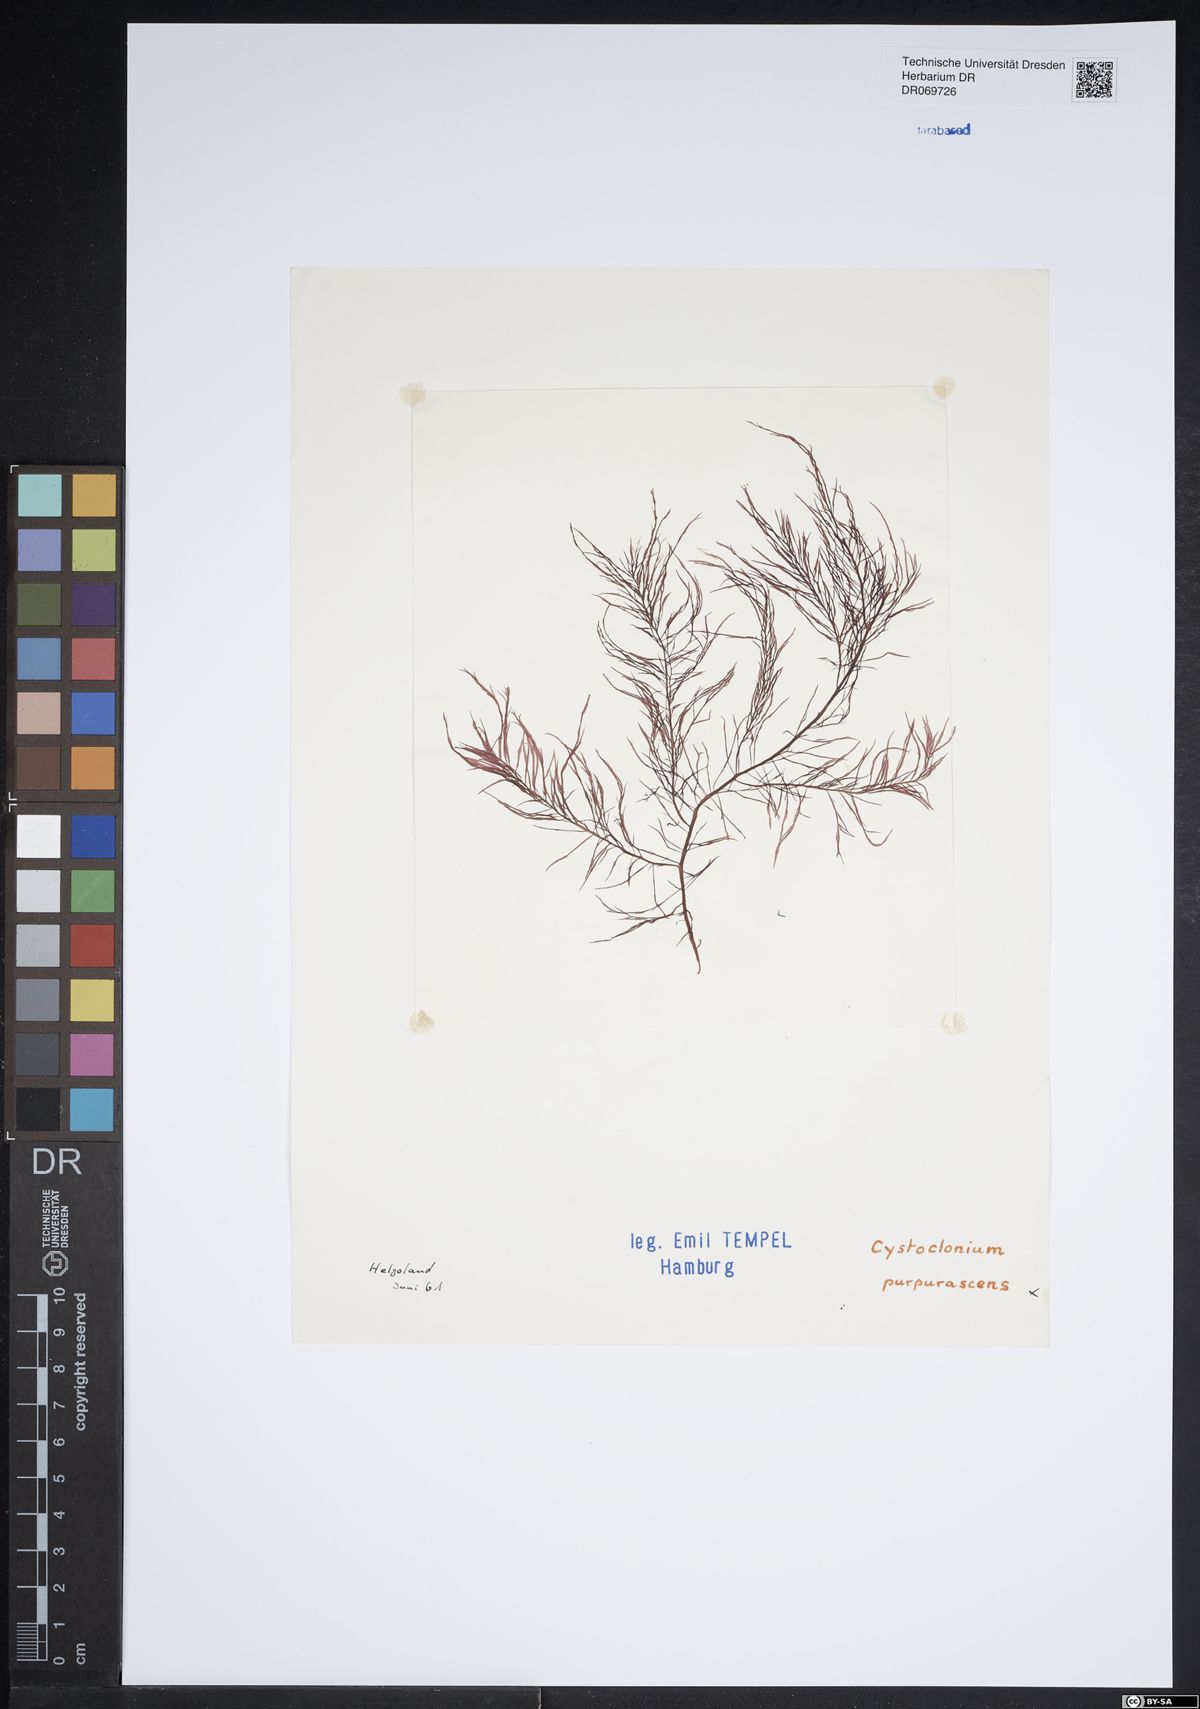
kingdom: Plantae
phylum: Rhodophyta
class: Florideophyceae
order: Gigartinales
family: Cystocloniaceae
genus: Cystoclonium
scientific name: Cystoclonium purpureum
